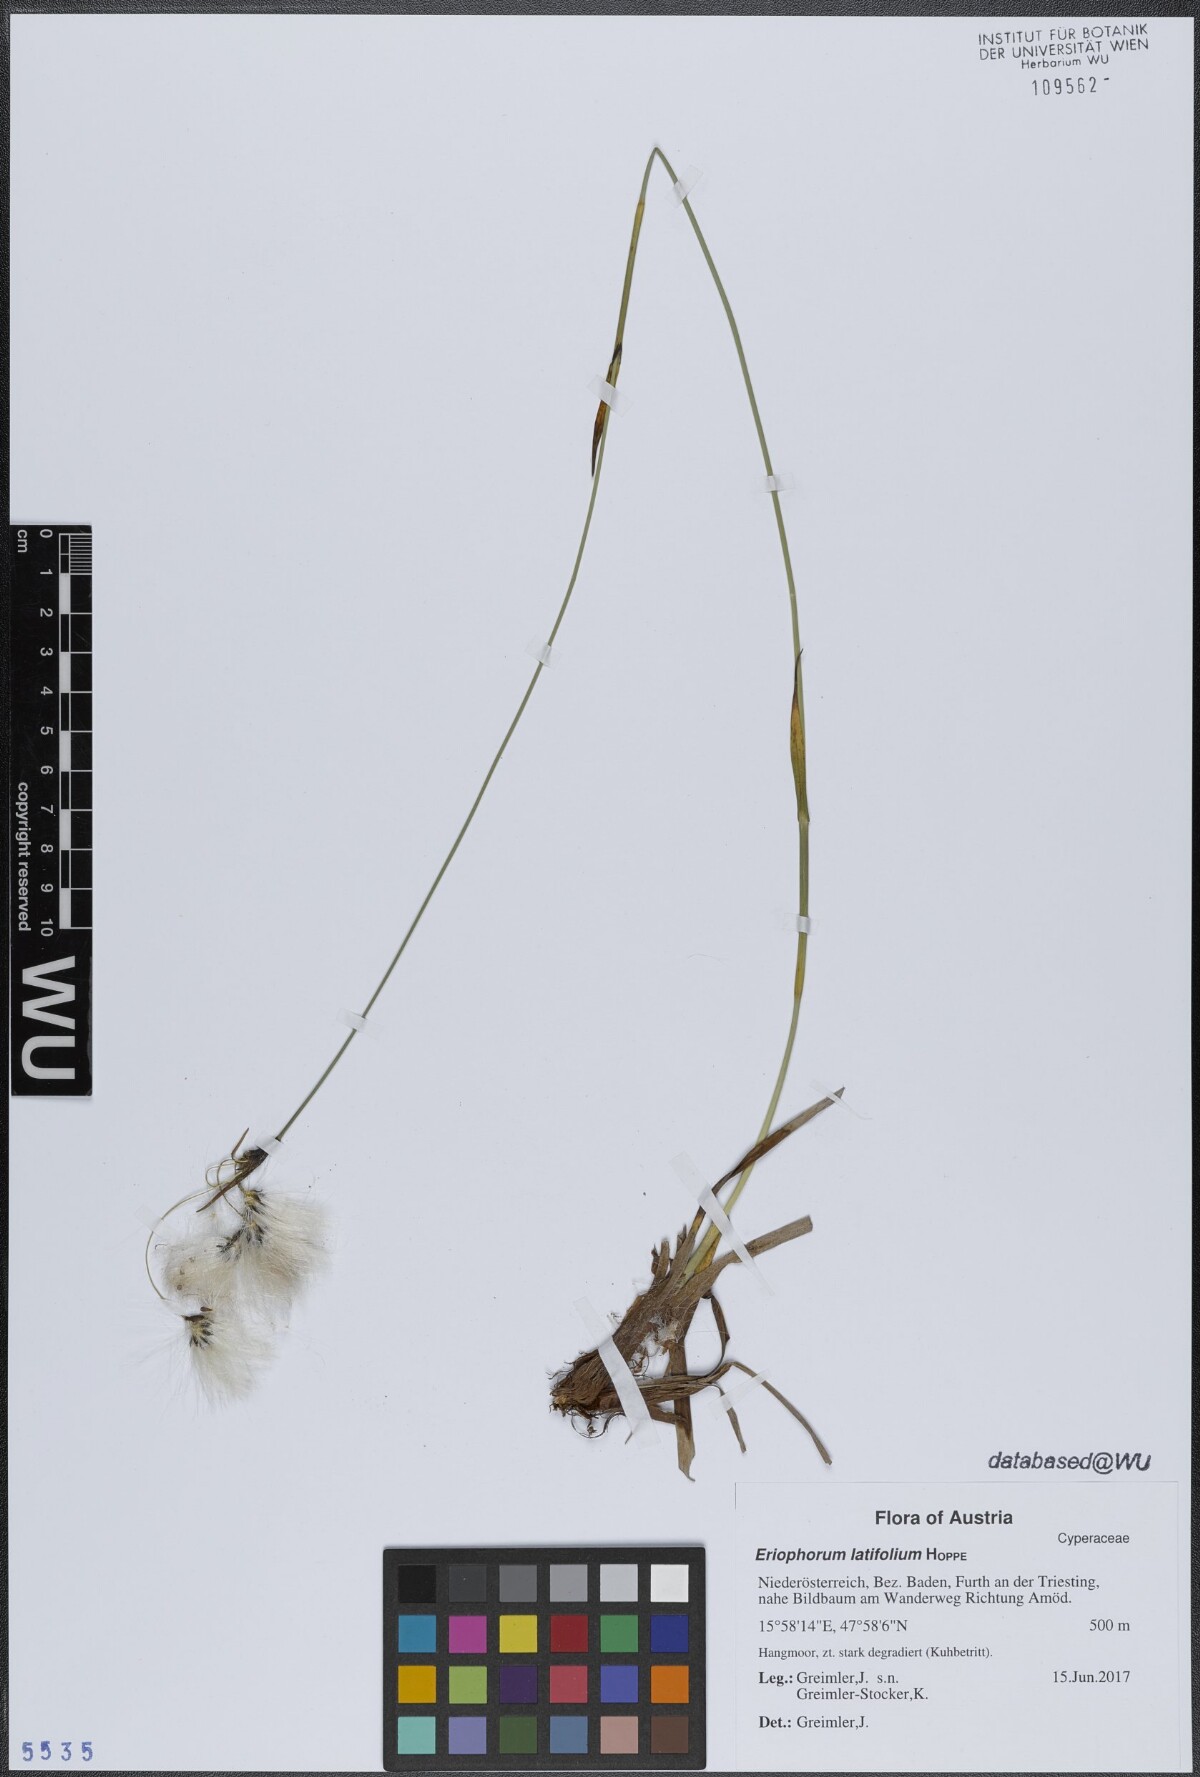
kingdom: Plantae
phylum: Tracheophyta
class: Liliopsida
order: Poales
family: Cyperaceae
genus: Eriophorum
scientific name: Eriophorum latifolium
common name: Broad-leaved cottongrass
